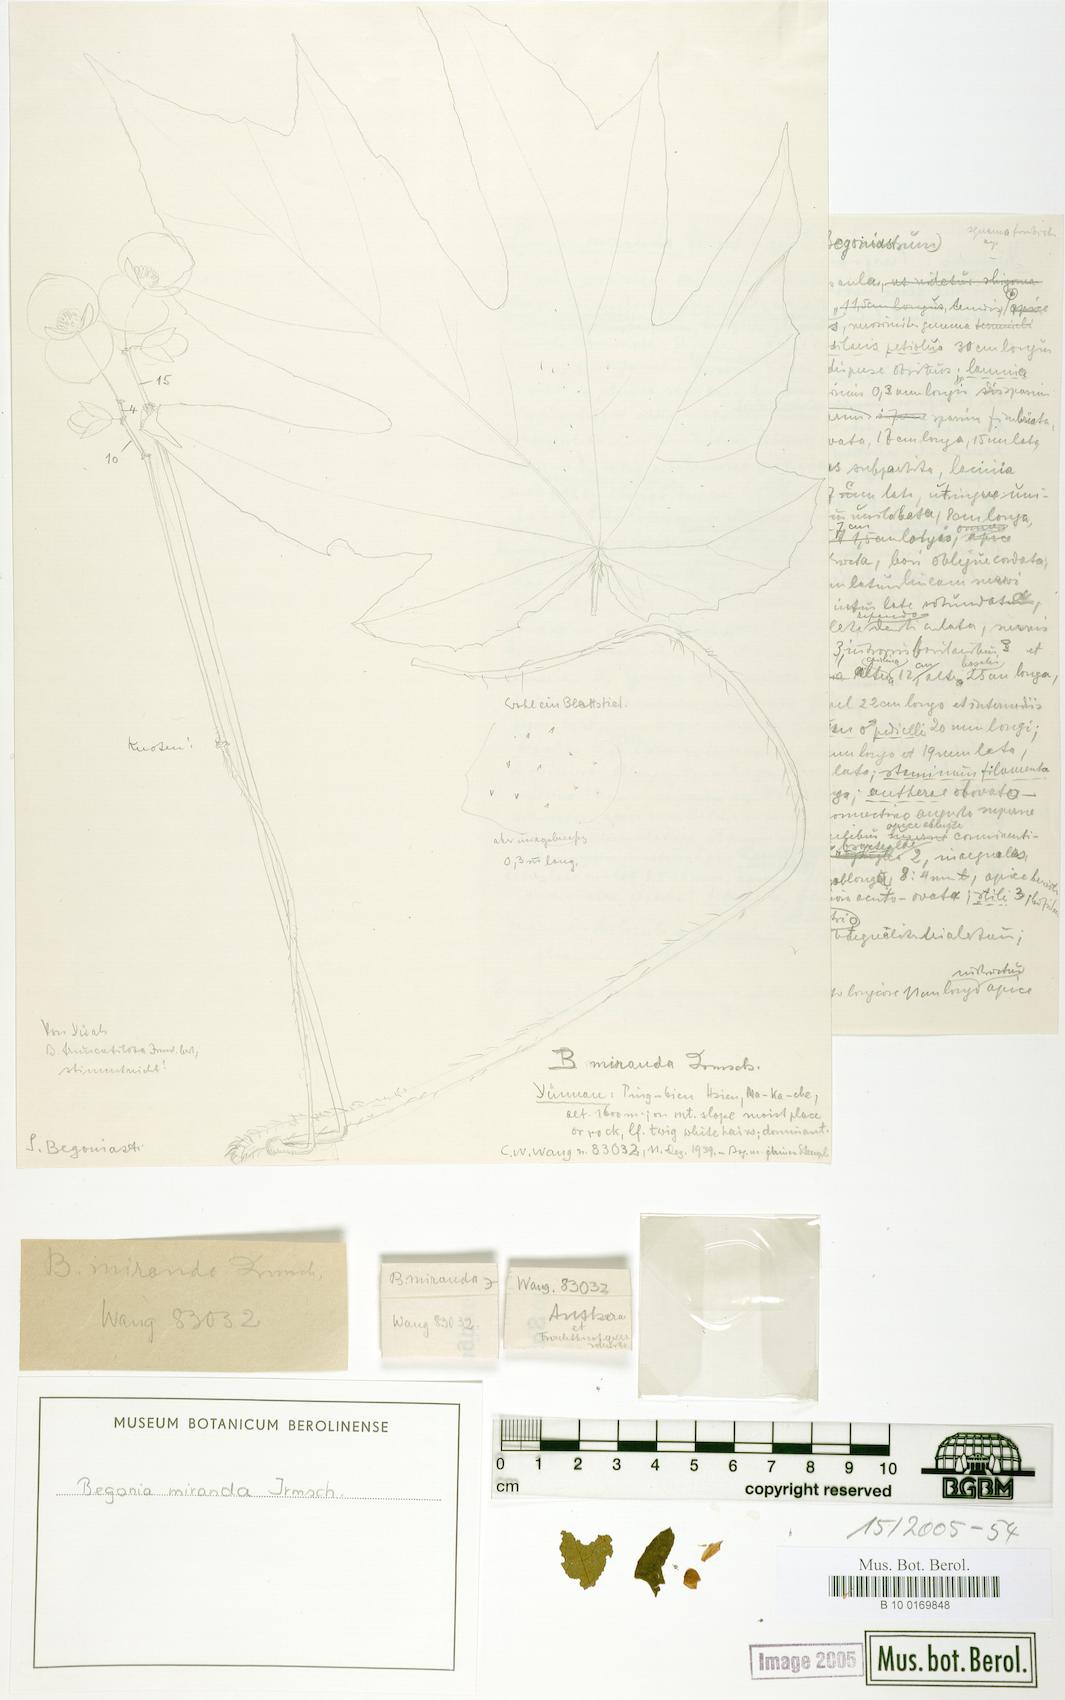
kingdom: Plantae
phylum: Tracheophyta
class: Magnoliopsida
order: Cucurbitales
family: Begoniaceae
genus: Begonia
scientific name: Begonia miranda
